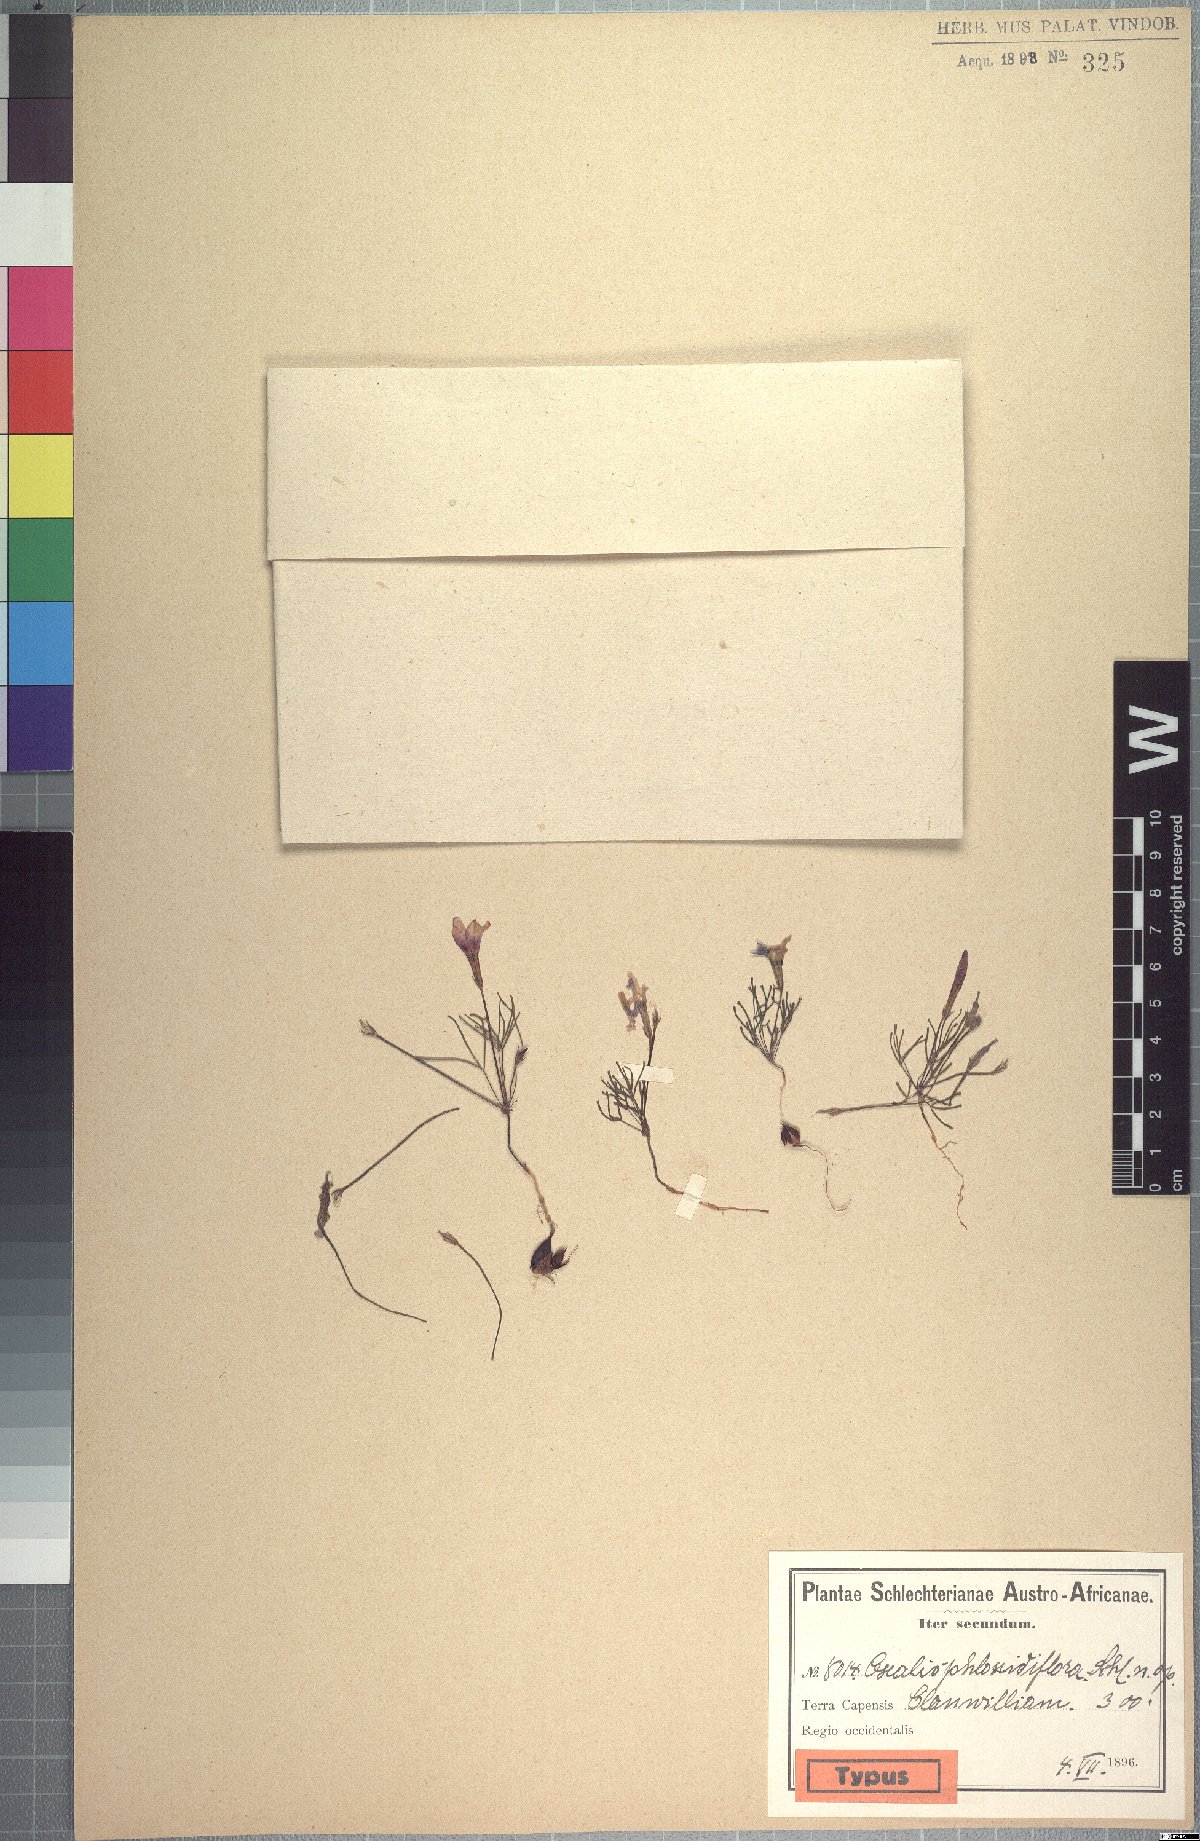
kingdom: Plantae
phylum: Tracheophyta
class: Magnoliopsida
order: Oxalidales
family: Oxalidaceae
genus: Oxalis
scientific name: Oxalis phloxidiflora
